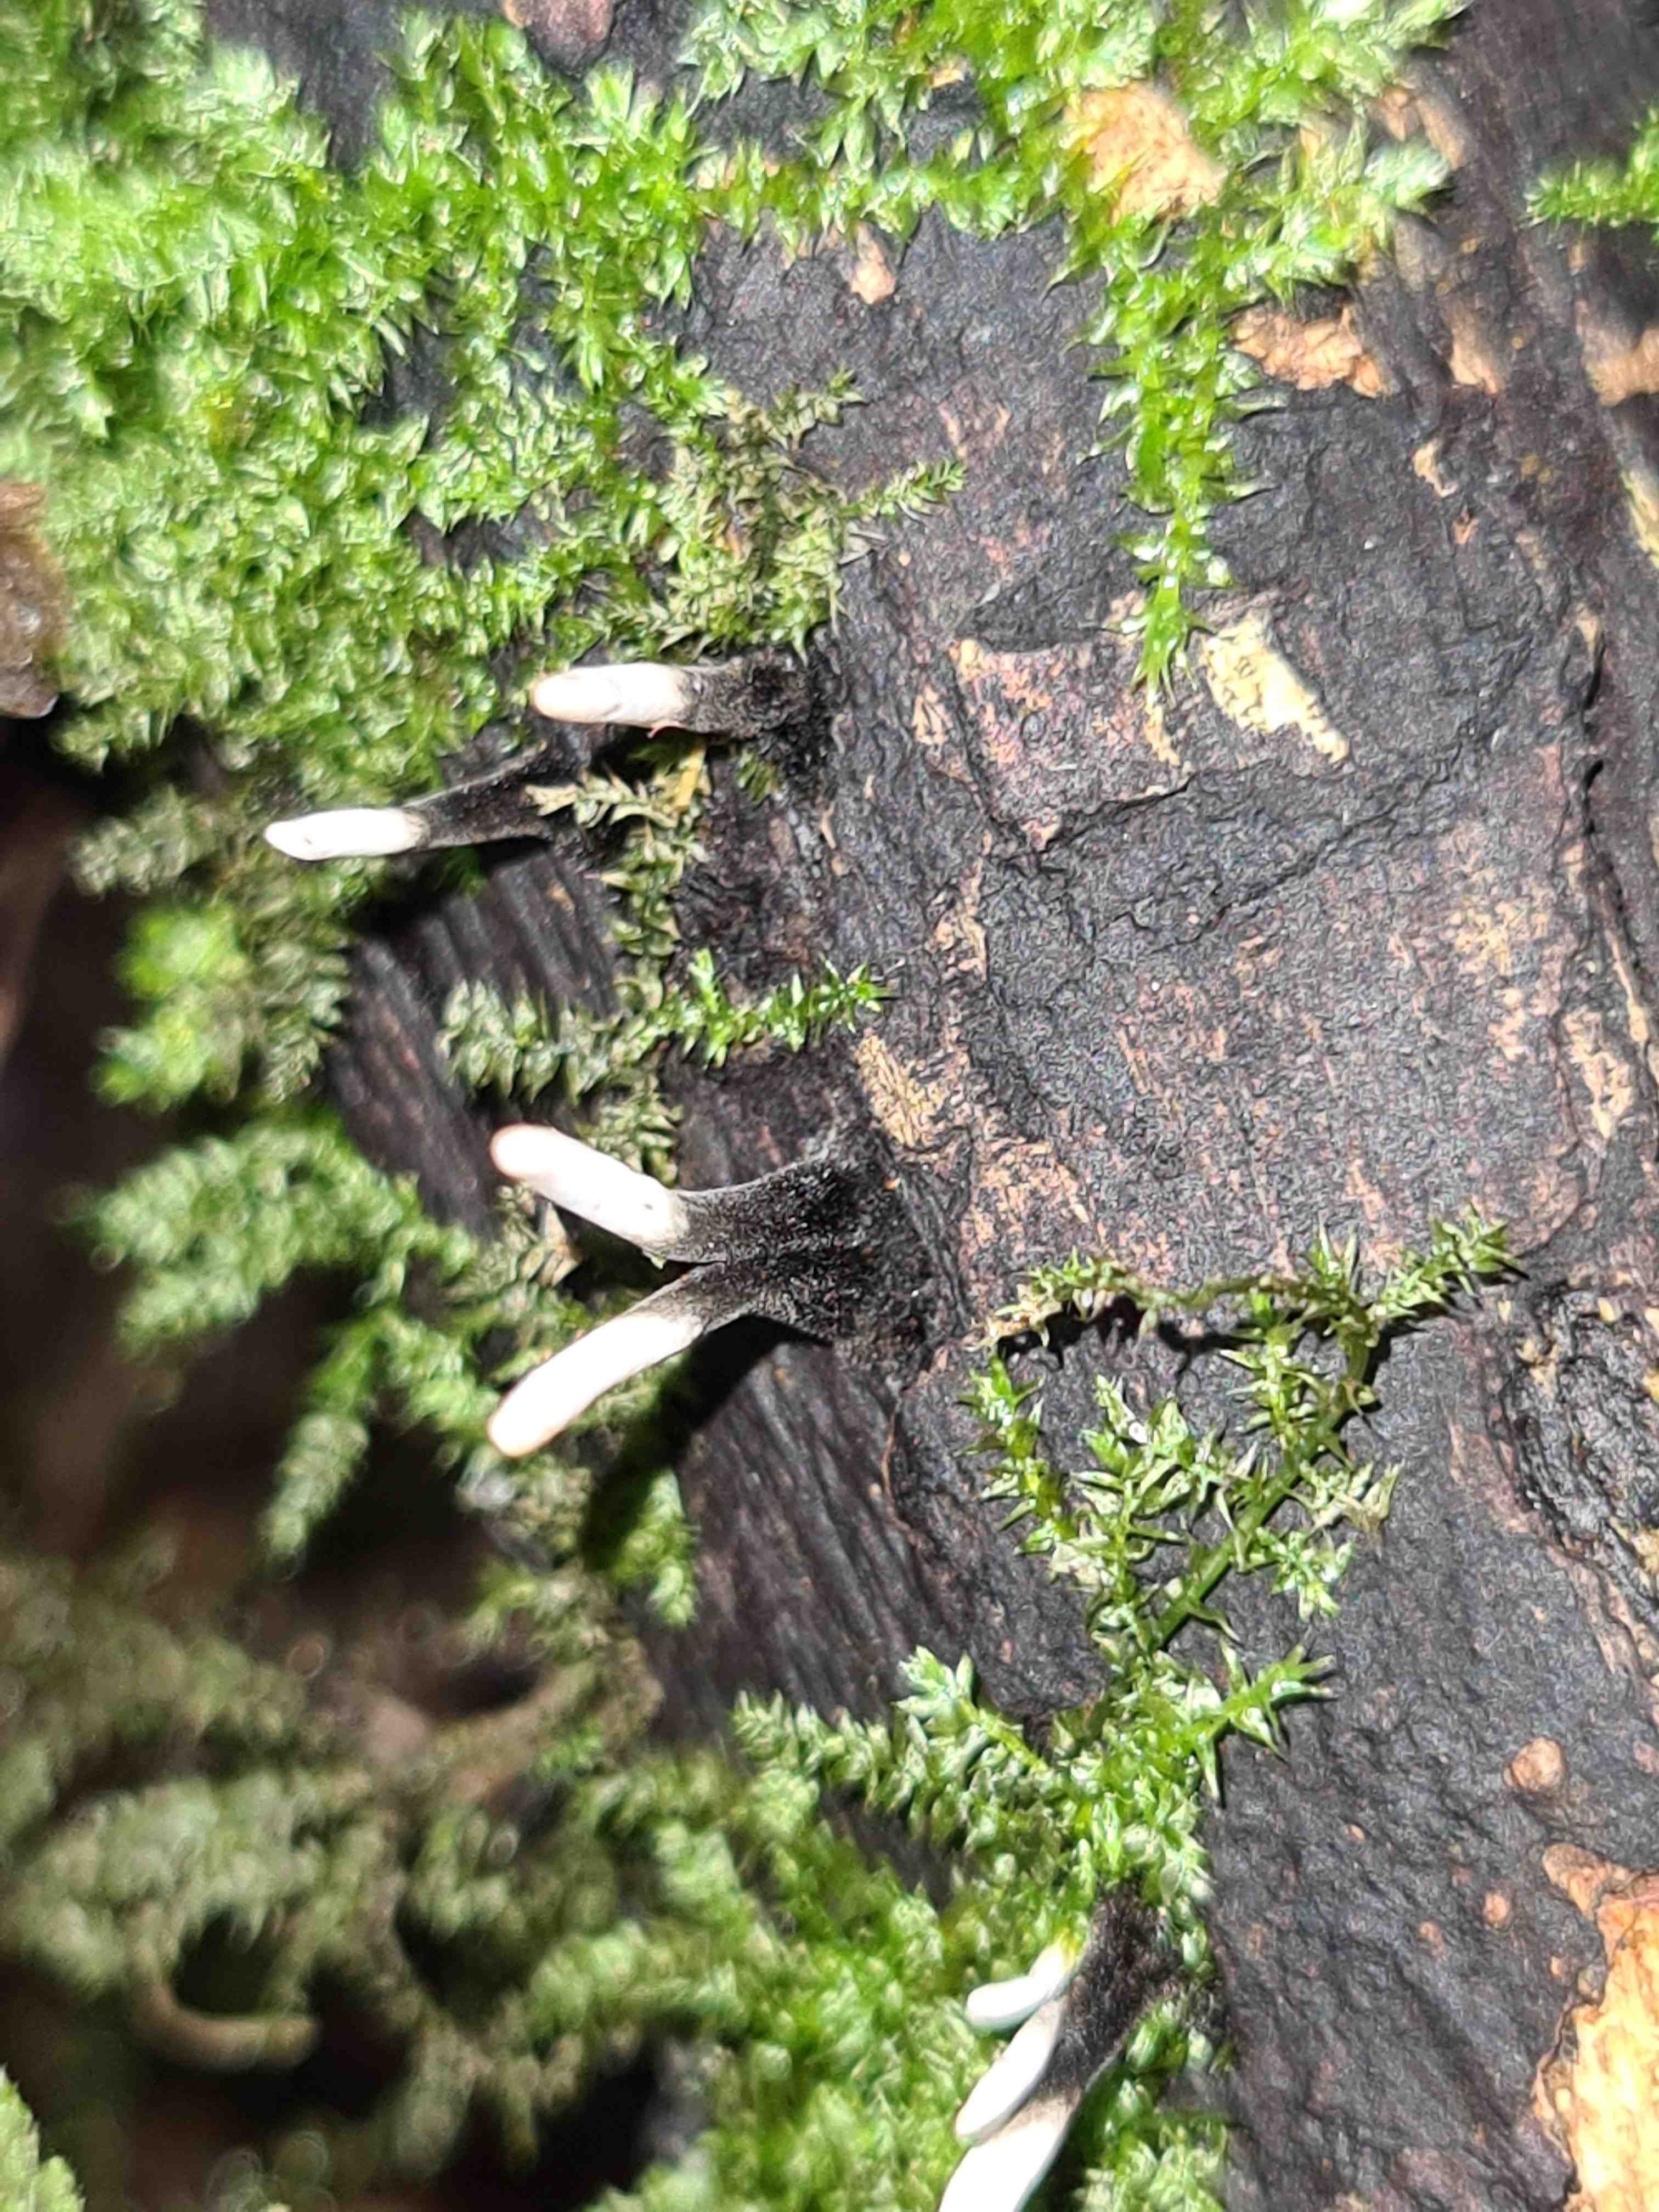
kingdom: Fungi
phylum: Ascomycota
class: Sordariomycetes
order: Xylariales
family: Xylariaceae
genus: Xylaria
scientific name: Xylaria hypoxylon
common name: grenet stødsvamp
